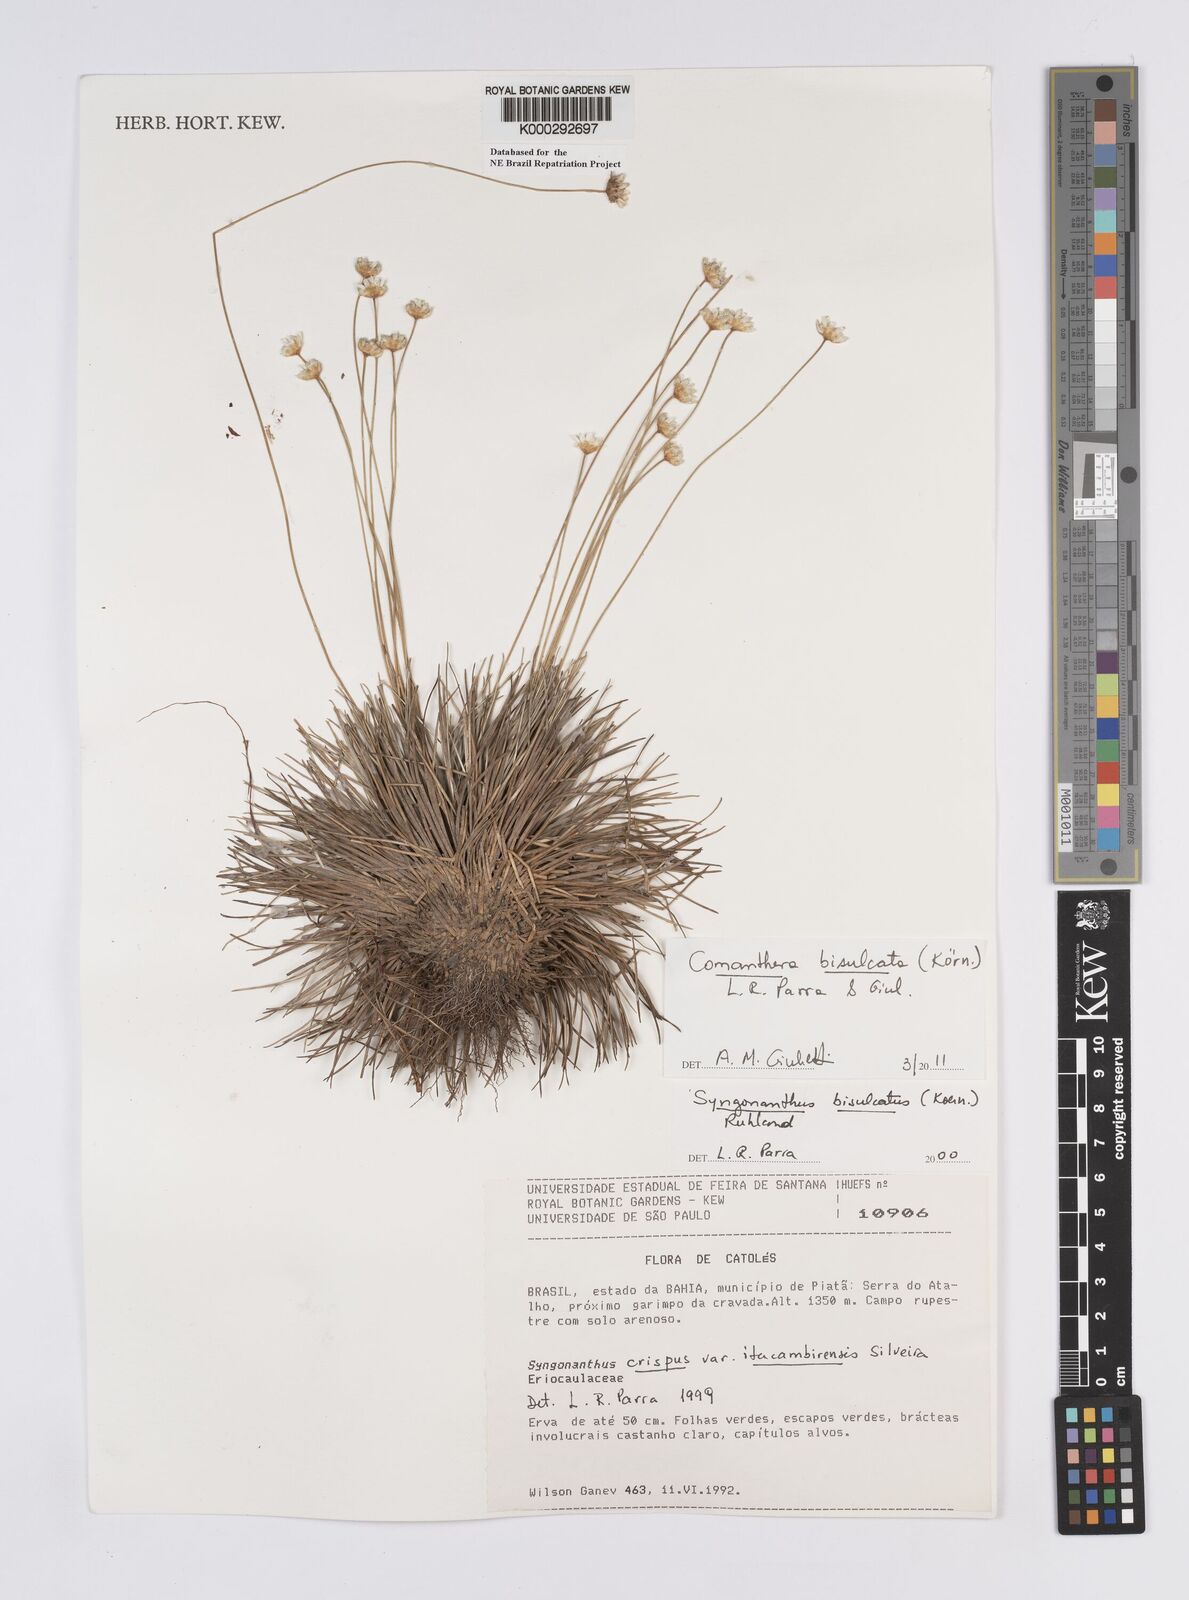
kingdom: Plantae
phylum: Tracheophyta
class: Liliopsida
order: Poales
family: Eriocaulaceae
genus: Comanthera
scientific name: Comanthera bisulcata
